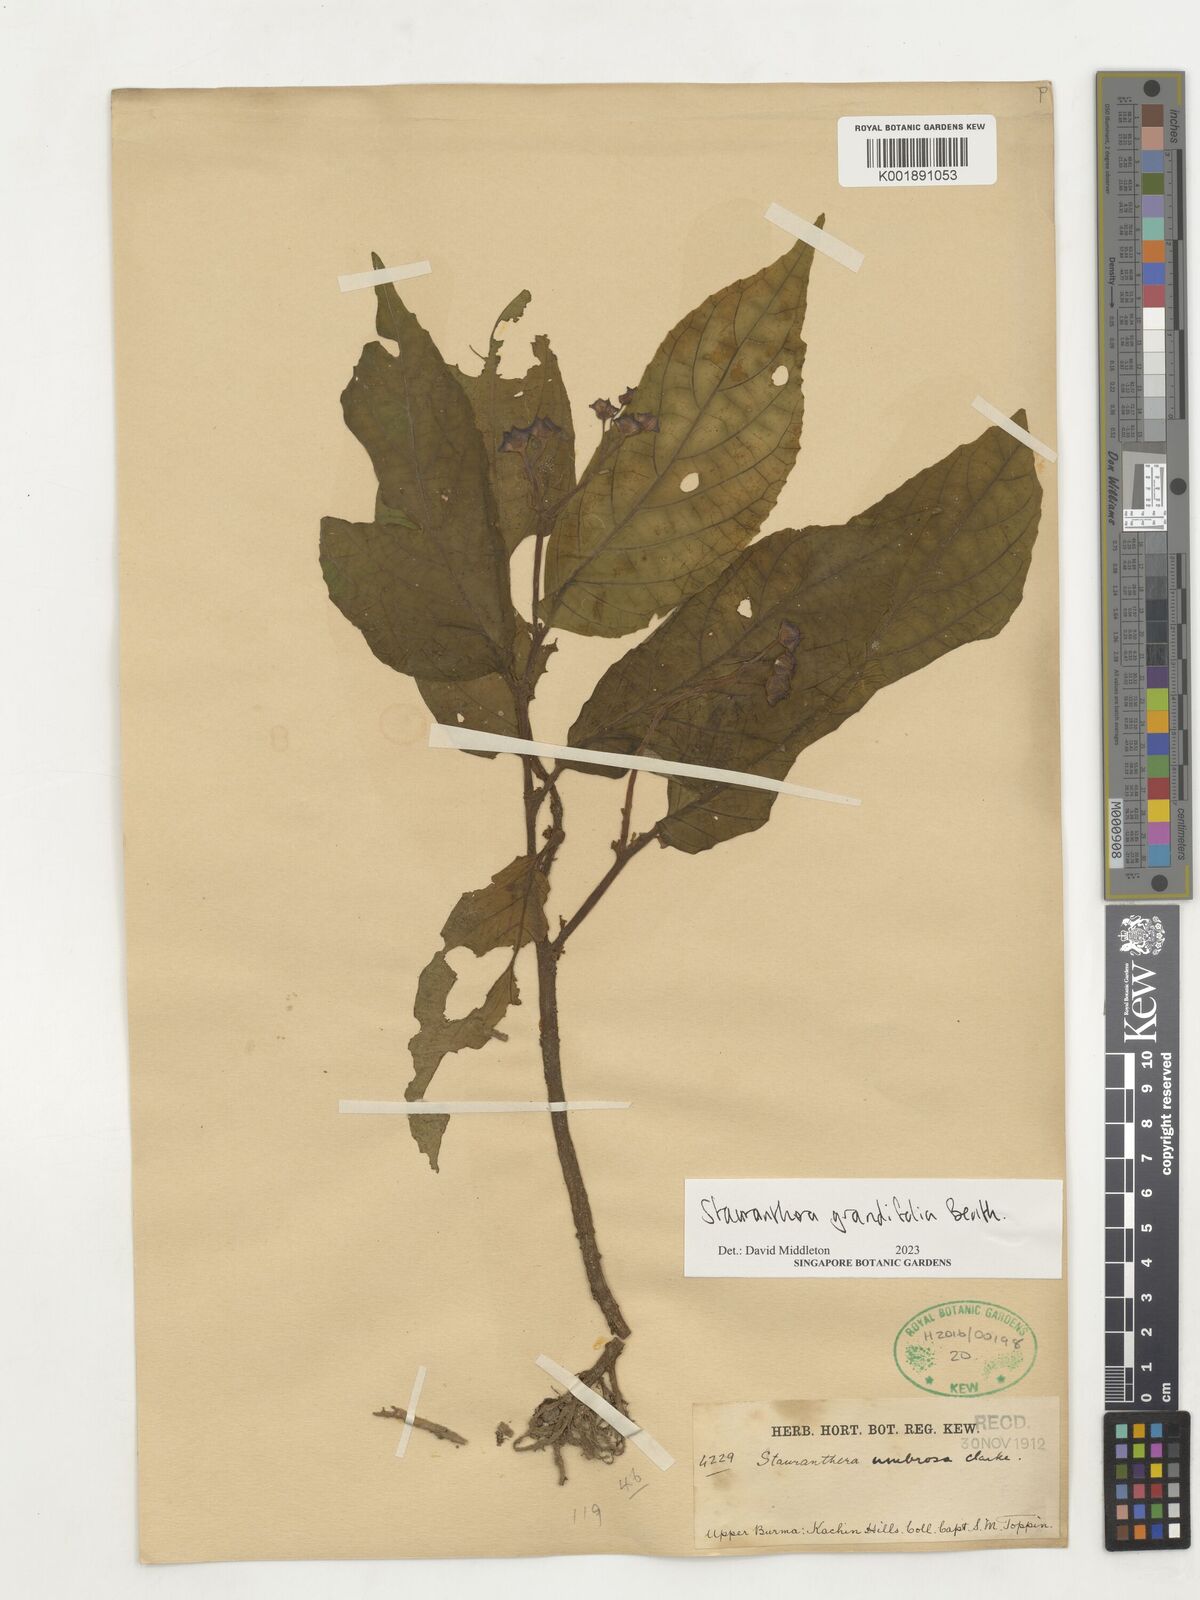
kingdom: Plantae
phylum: Tracheophyta
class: Magnoliopsida
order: Lamiales
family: Gesneriaceae
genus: Stauranthera
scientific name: Stauranthera grandifolia
